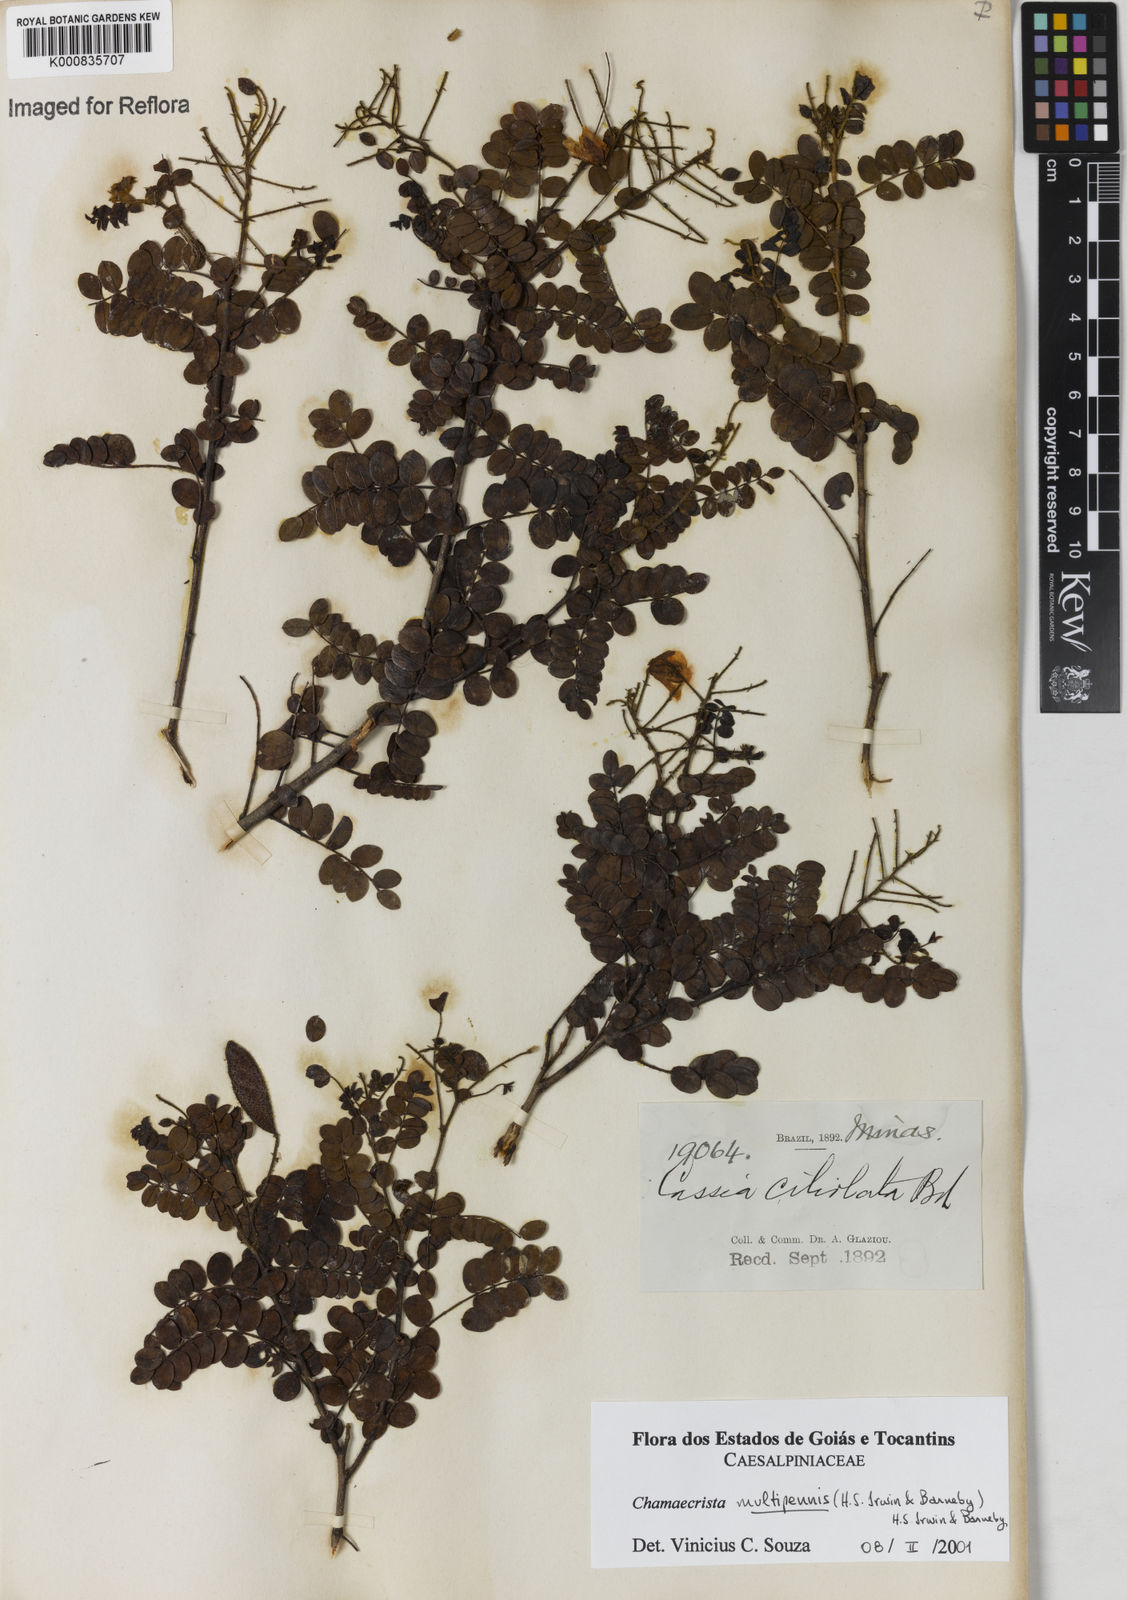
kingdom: Plantae
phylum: Tracheophyta
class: Magnoliopsida
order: Fabales
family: Fabaceae
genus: Chamaecrista
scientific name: Chamaecrista multipennis
